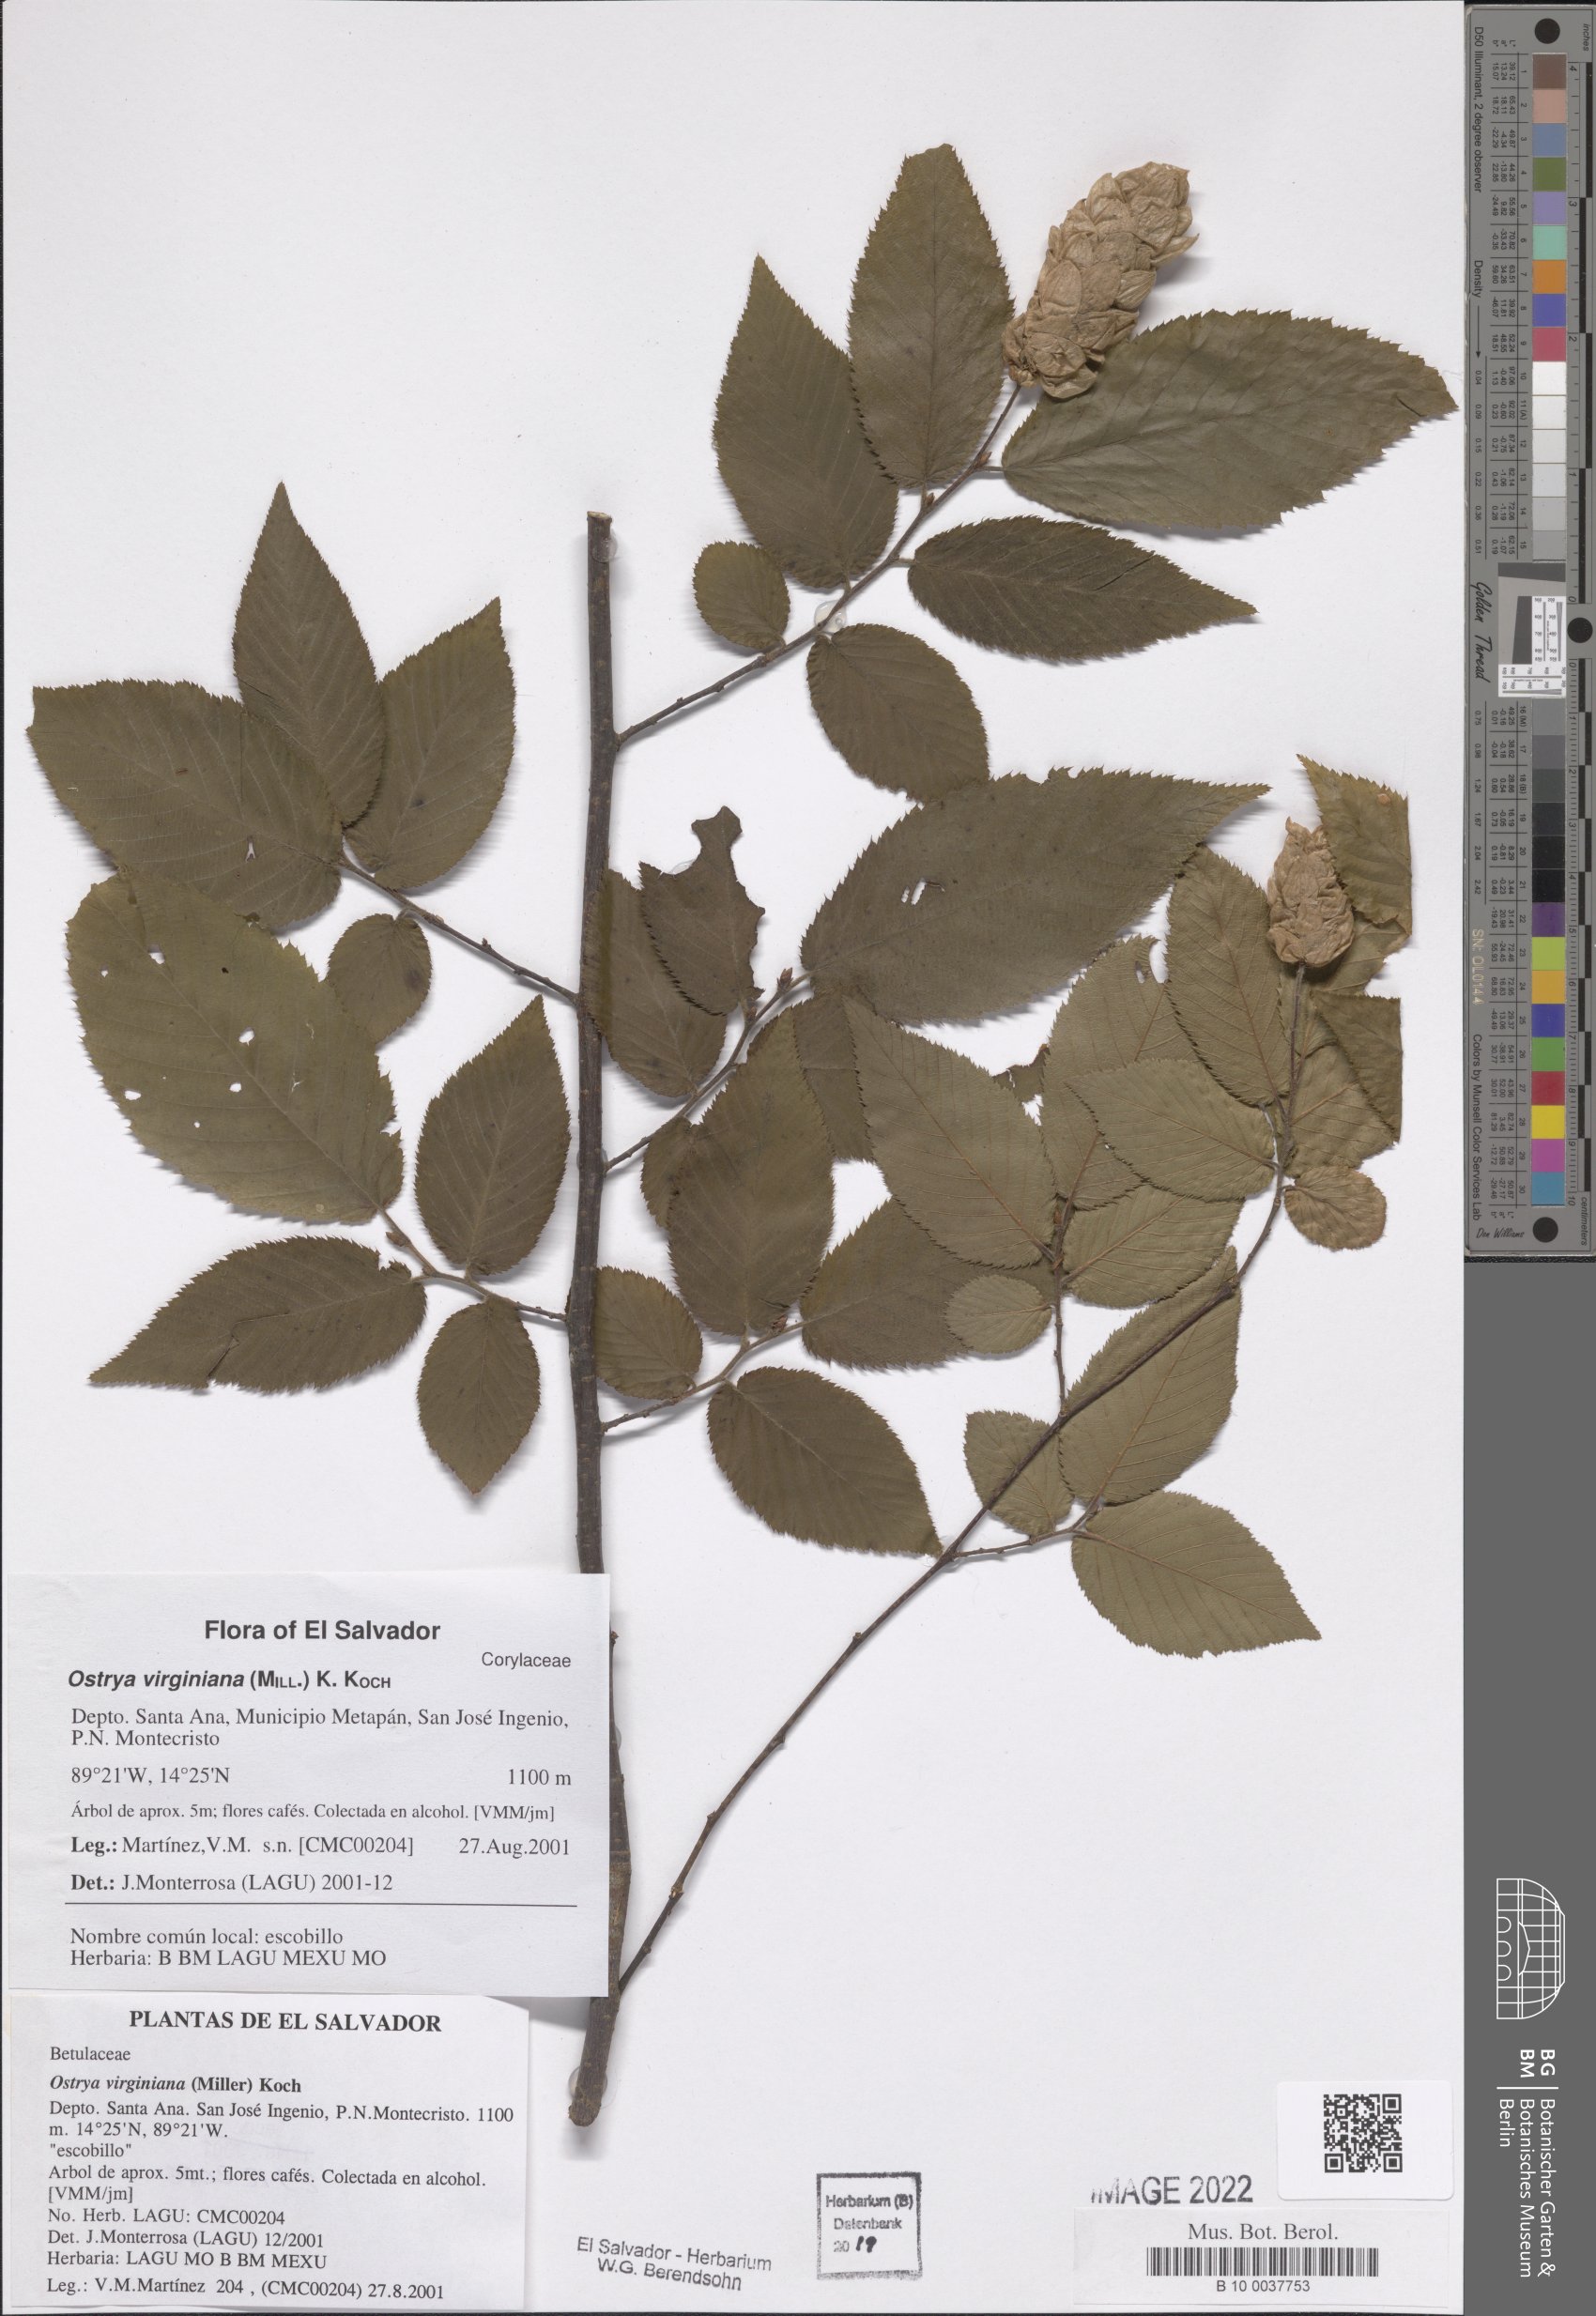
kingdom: Plantae
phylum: Tracheophyta
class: Magnoliopsida
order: Fagales
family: Betulaceae
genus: Ostrya
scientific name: Ostrya virginiana
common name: Ironwood
